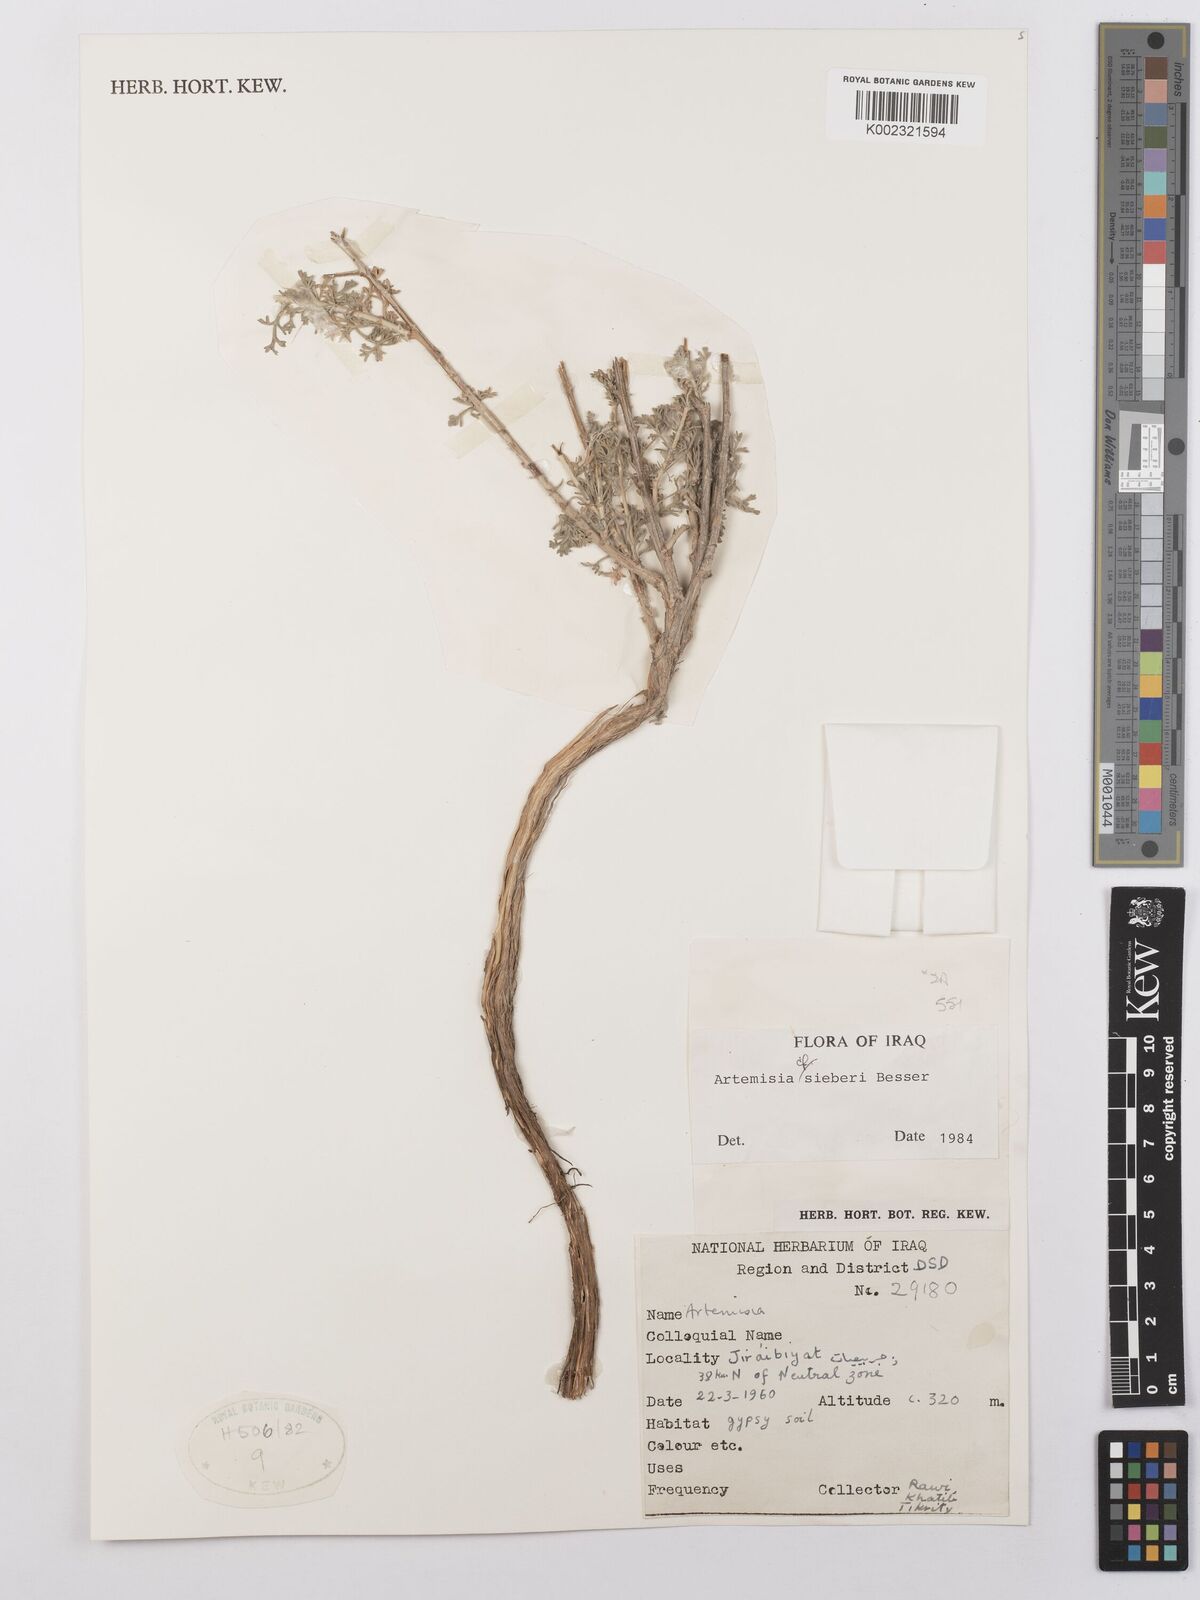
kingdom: Plantae
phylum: Tracheophyta
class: Magnoliopsida
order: Asterales
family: Asteraceae
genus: Artemisia
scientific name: Artemisia sieberi
